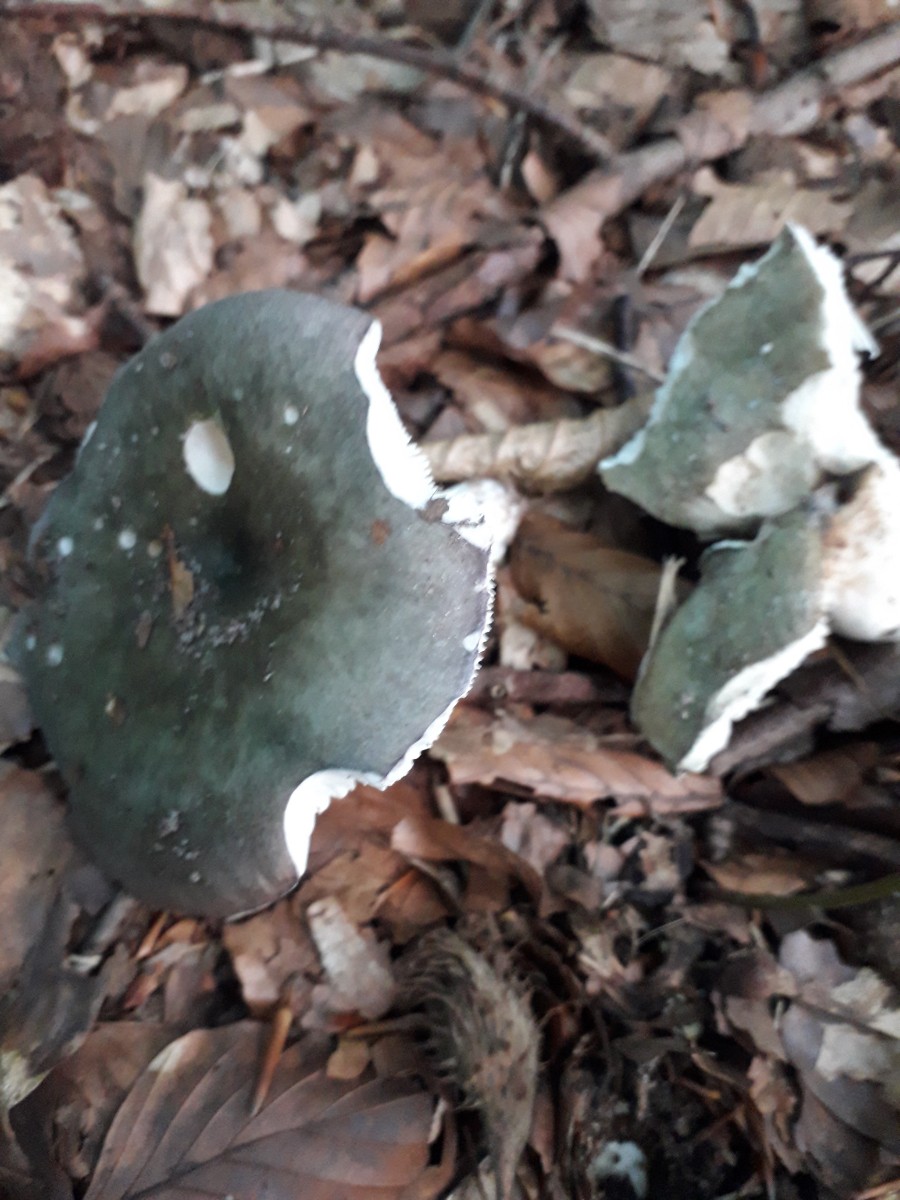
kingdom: Fungi
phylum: Basidiomycota
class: Agaricomycetes
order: Russulales
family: Russulaceae
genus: Russula
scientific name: Russula
